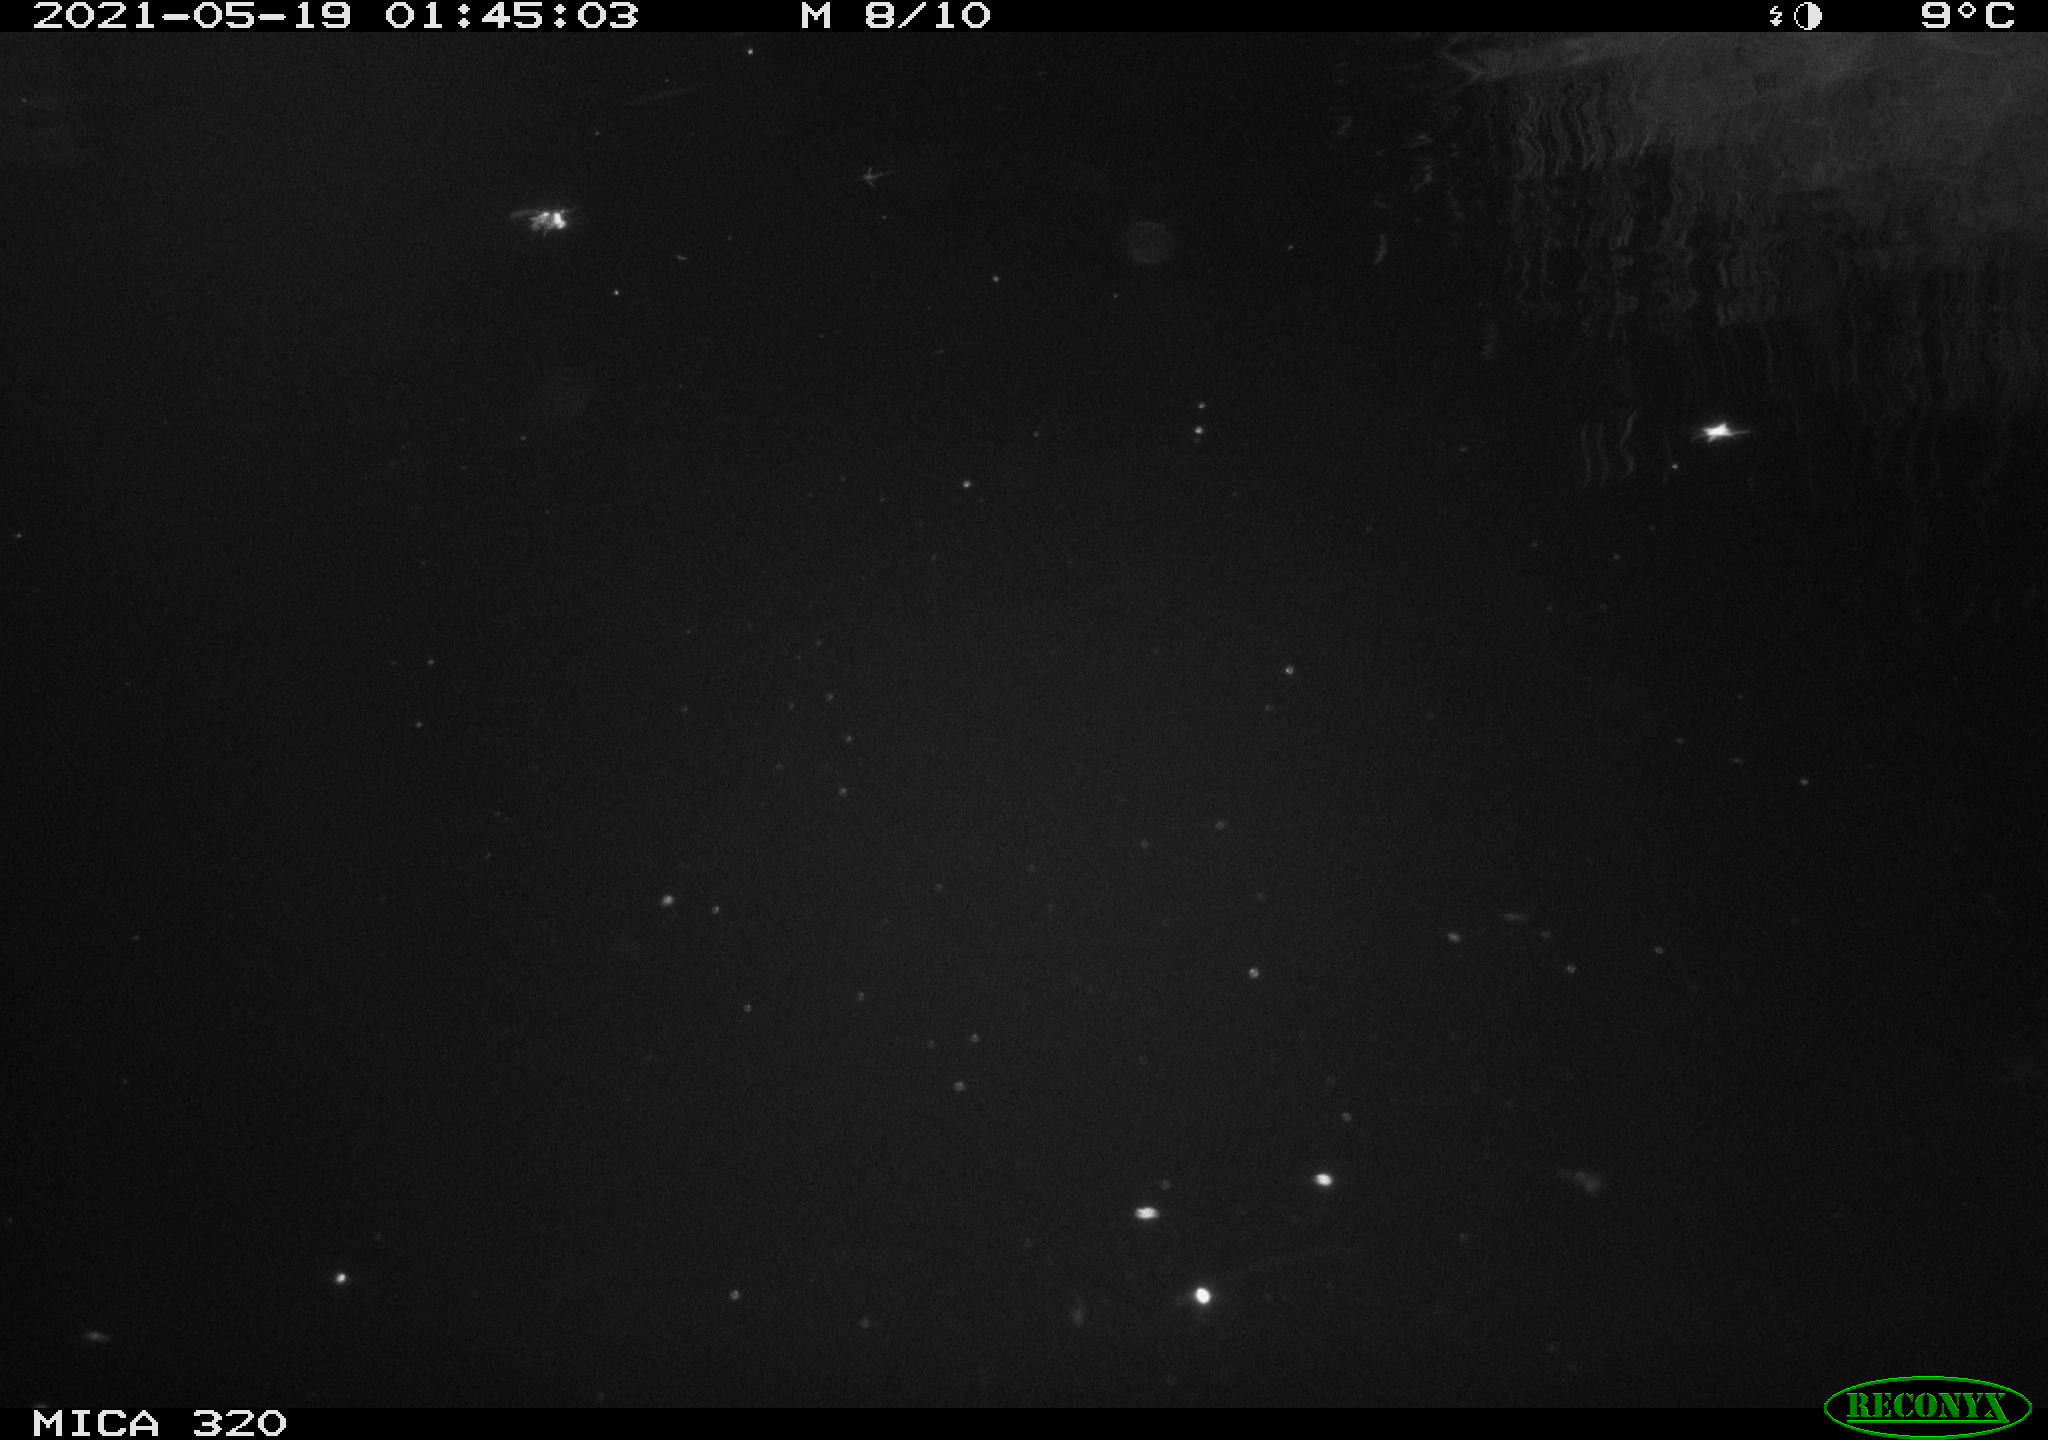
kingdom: Animalia
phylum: Chordata
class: Mammalia
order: Rodentia
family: Muridae
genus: Rattus
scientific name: Rattus norvegicus
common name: Brown rat
